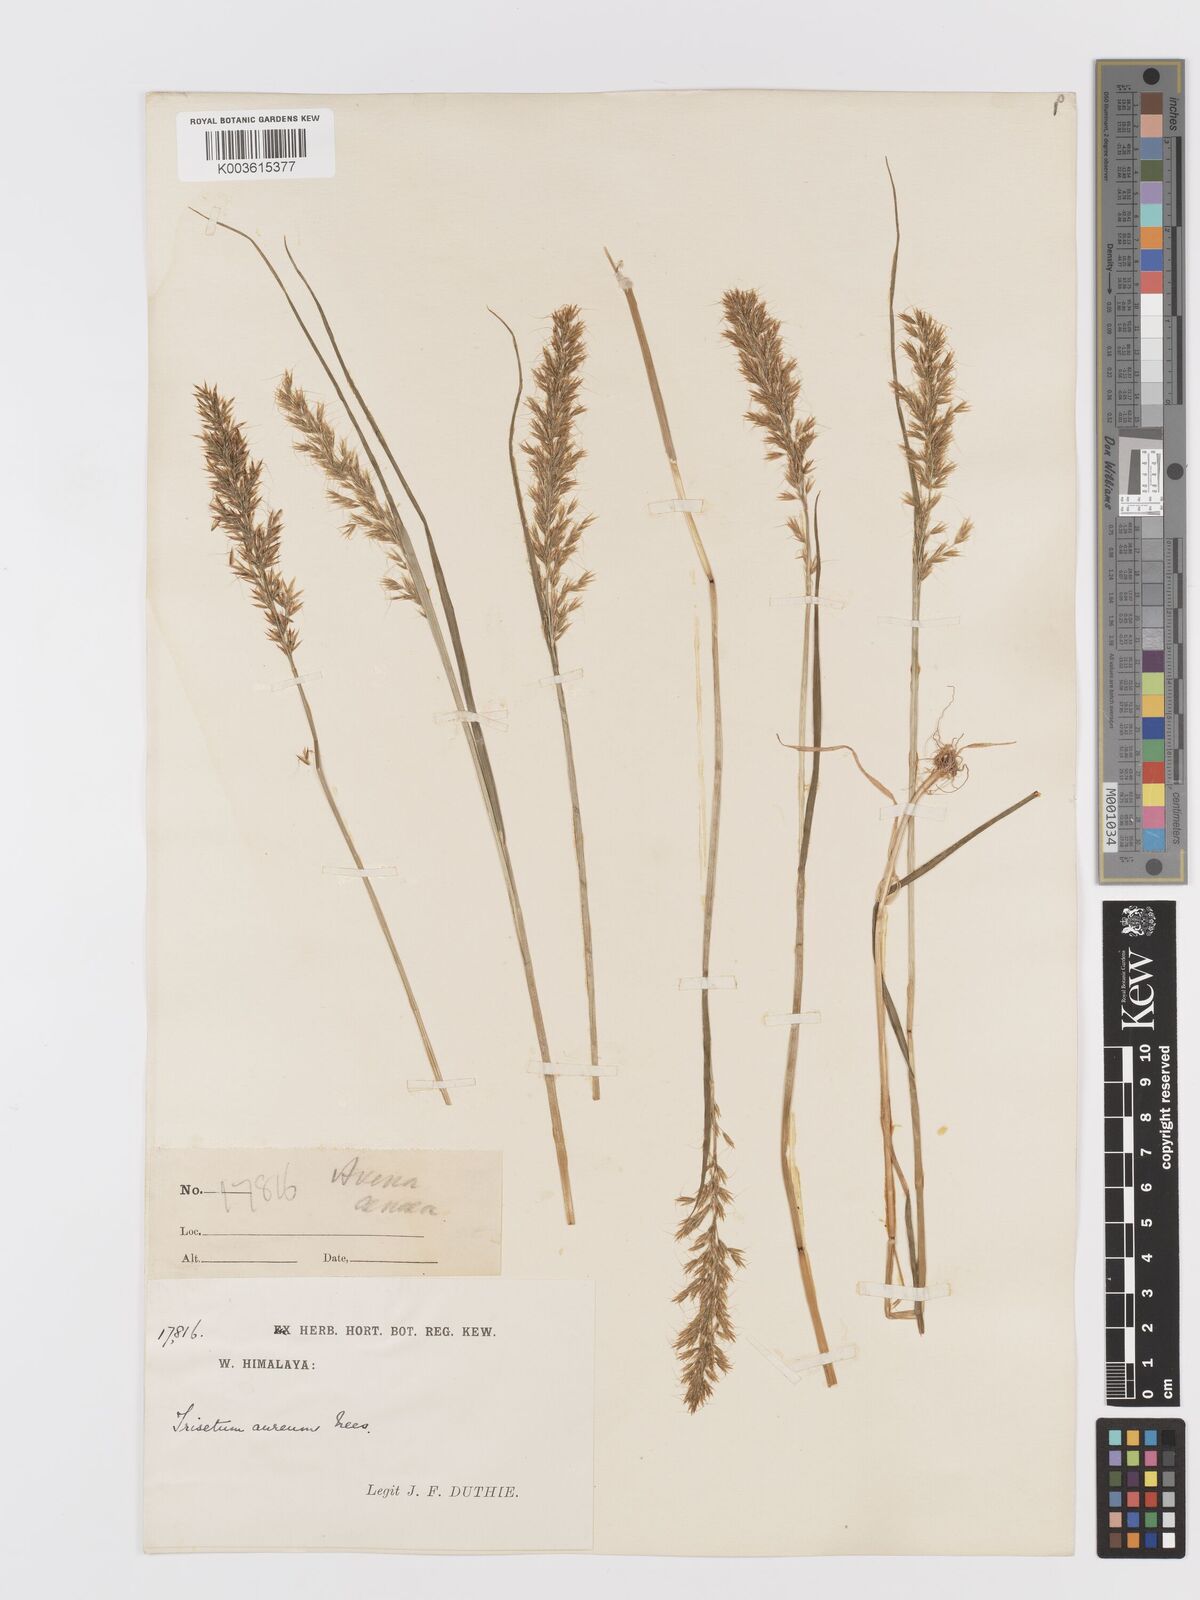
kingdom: Plantae
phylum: Tracheophyta
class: Liliopsida
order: Poales
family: Poaceae
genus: Sibirotrisetum
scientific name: Sibirotrisetum aeneum
